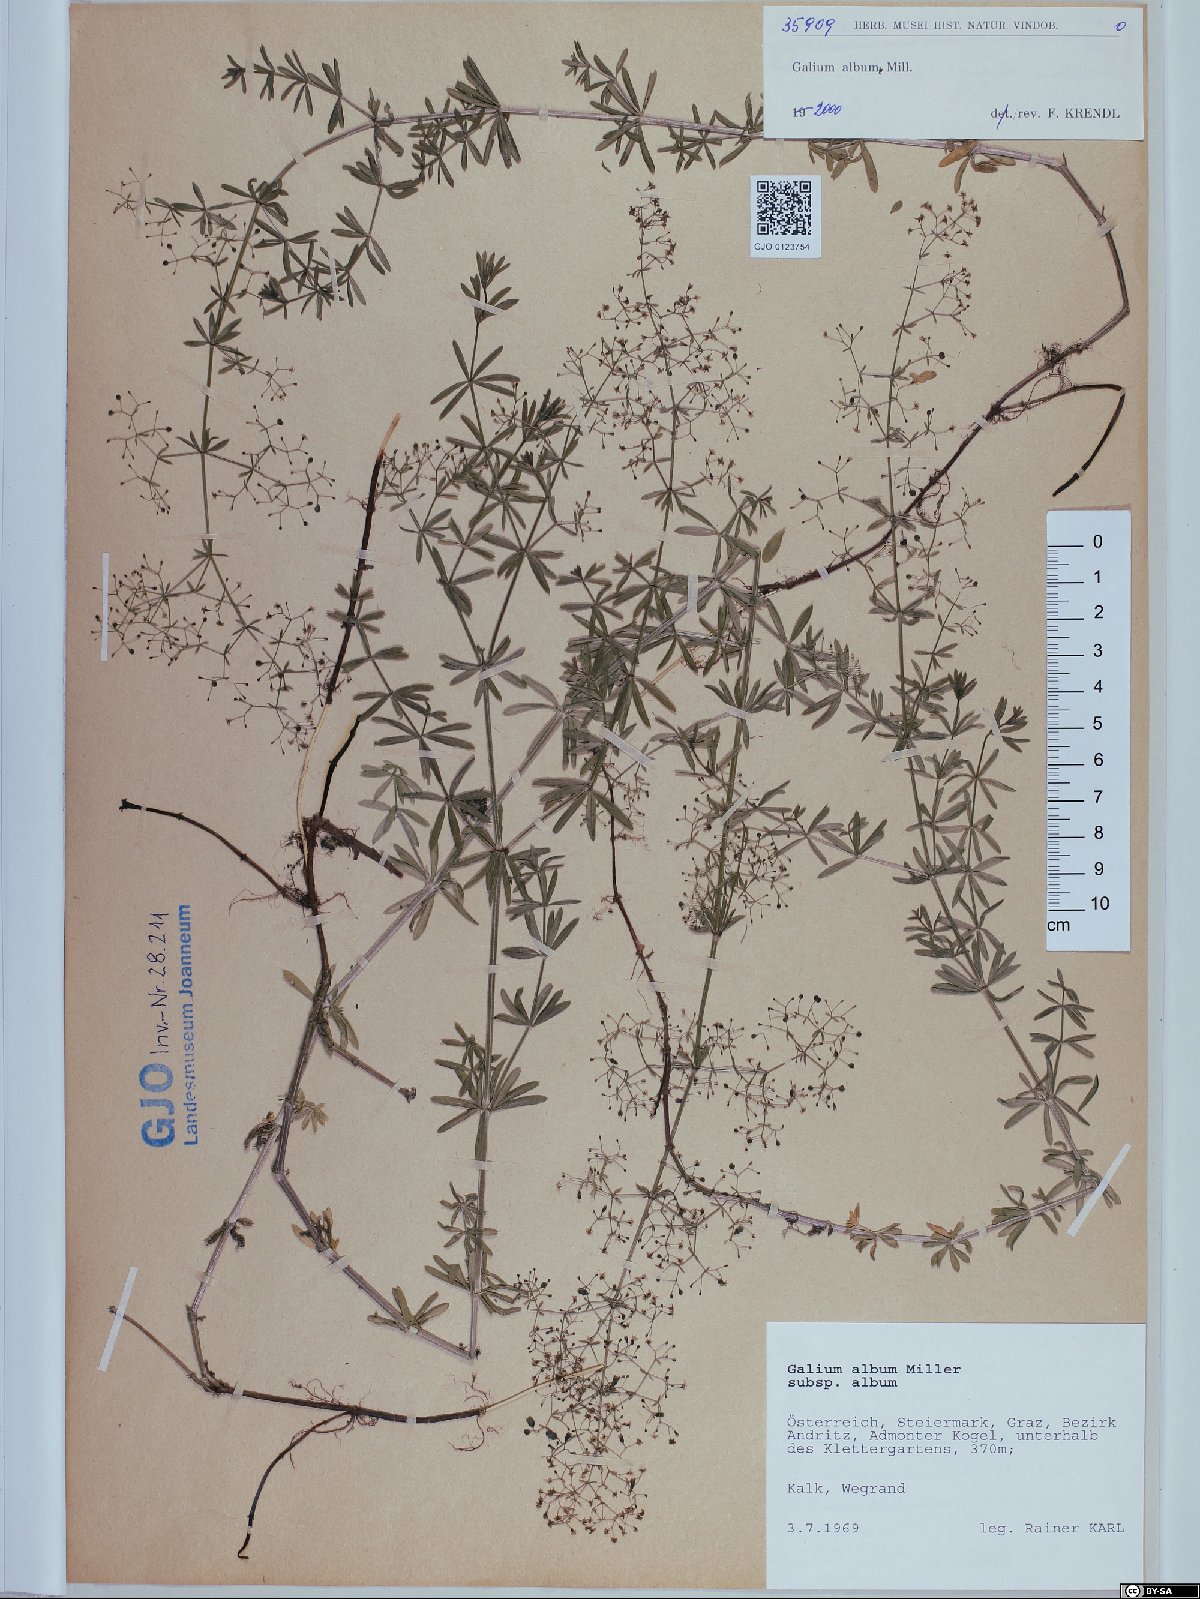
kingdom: Plantae
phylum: Tracheophyta
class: Magnoliopsida
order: Gentianales
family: Rubiaceae
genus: Galium
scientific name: Galium album
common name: White bedstraw
